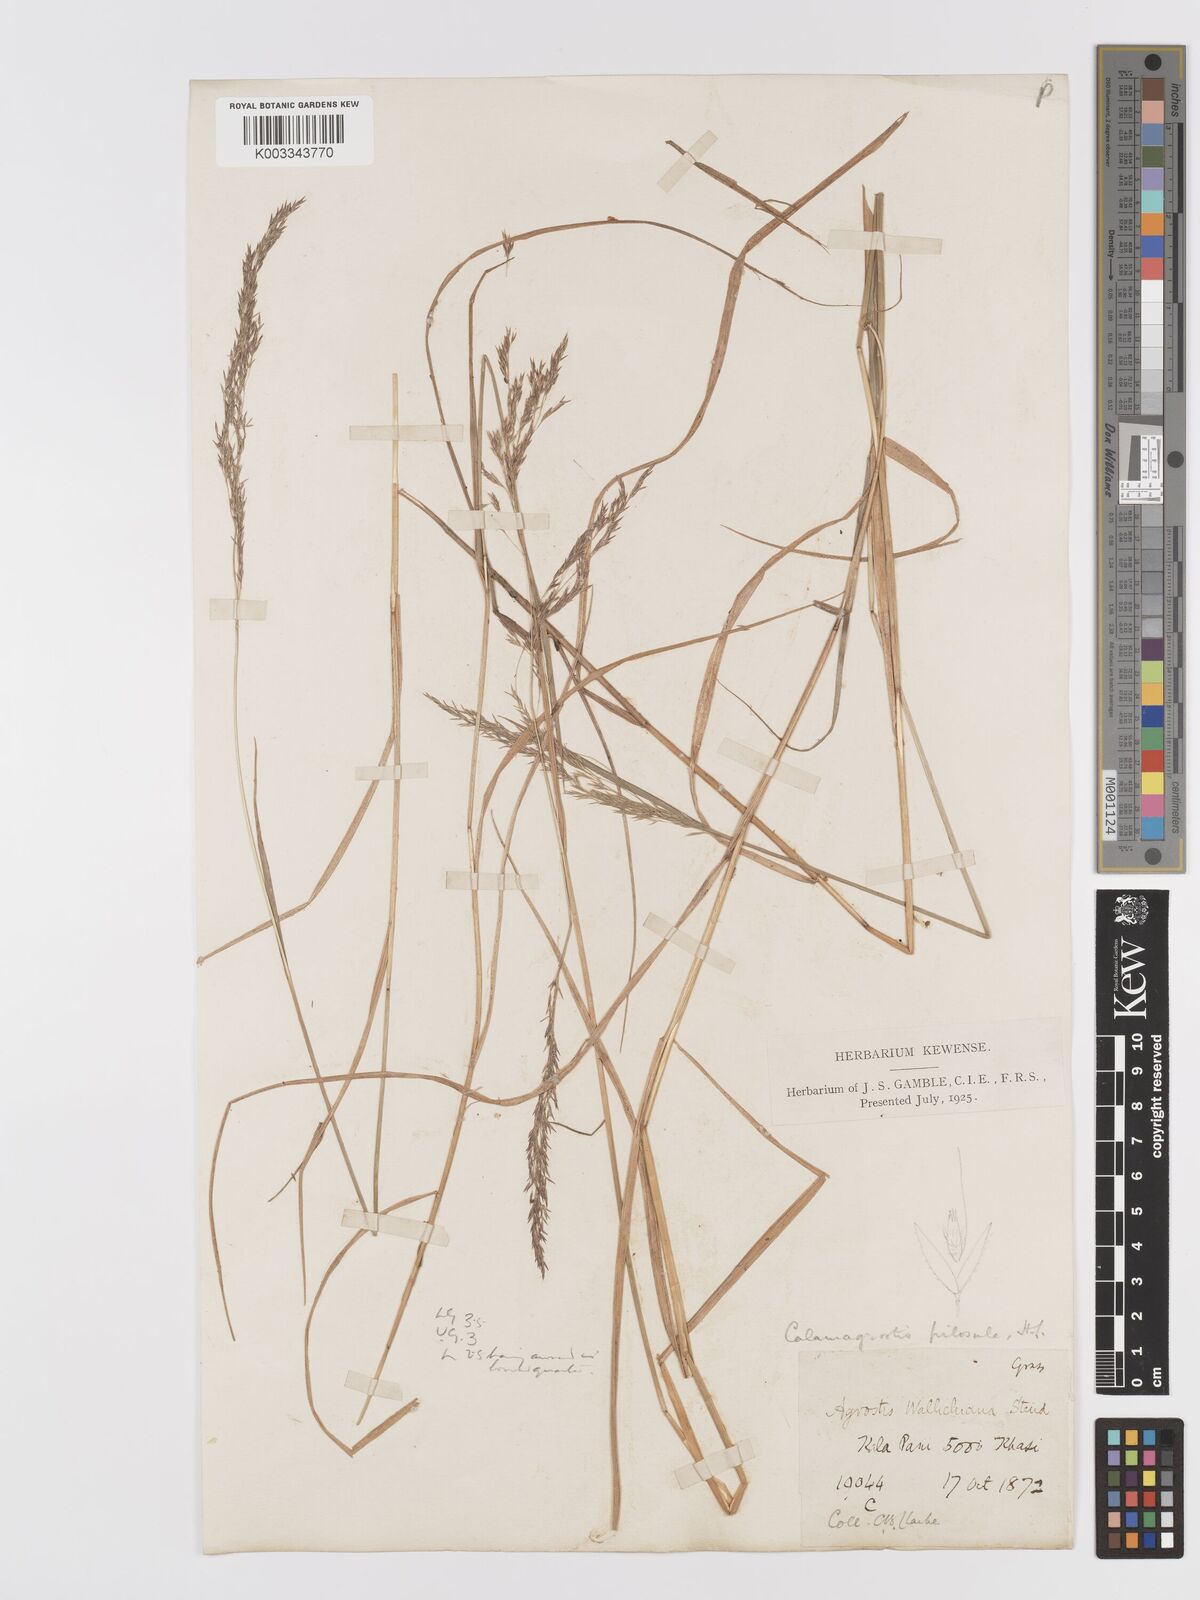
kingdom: Plantae
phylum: Tracheophyta
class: Liliopsida
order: Poales
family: Poaceae
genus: Agrostis
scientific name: Agrostis pilosula
